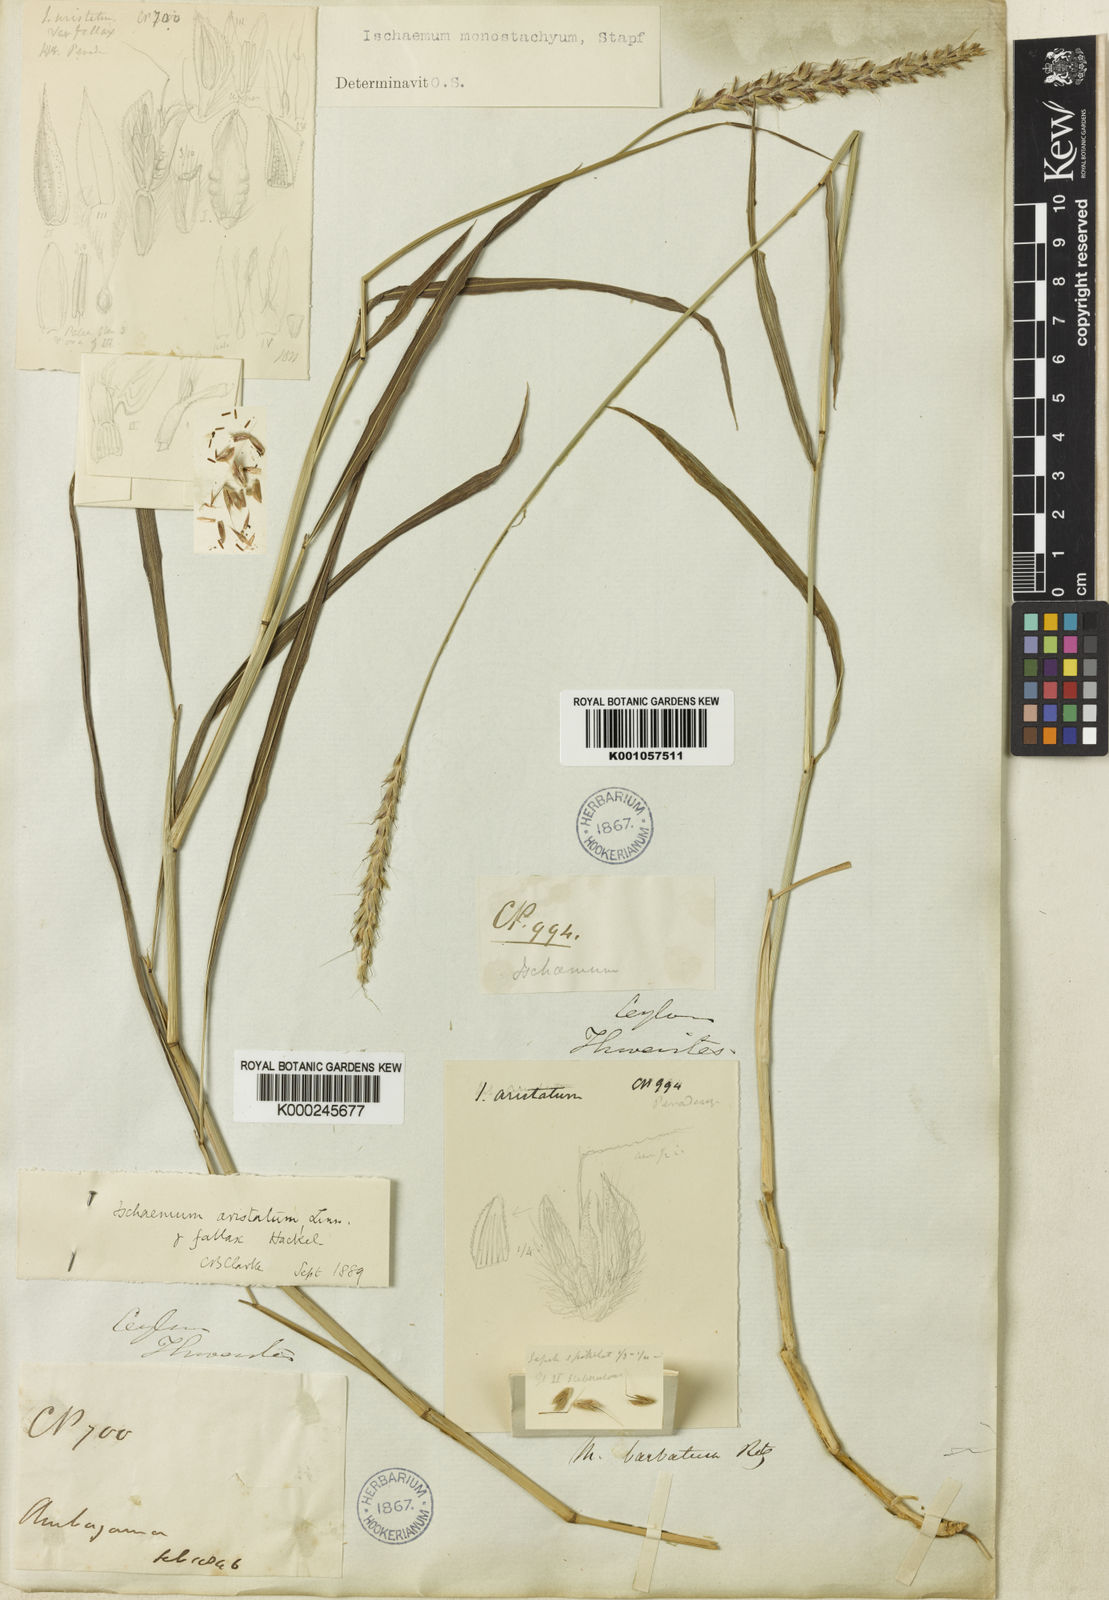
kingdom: Plantae
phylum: Tracheophyta
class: Liliopsida
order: Poales
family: Poaceae
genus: Ischaemum
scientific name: Ischaemum barbatum
